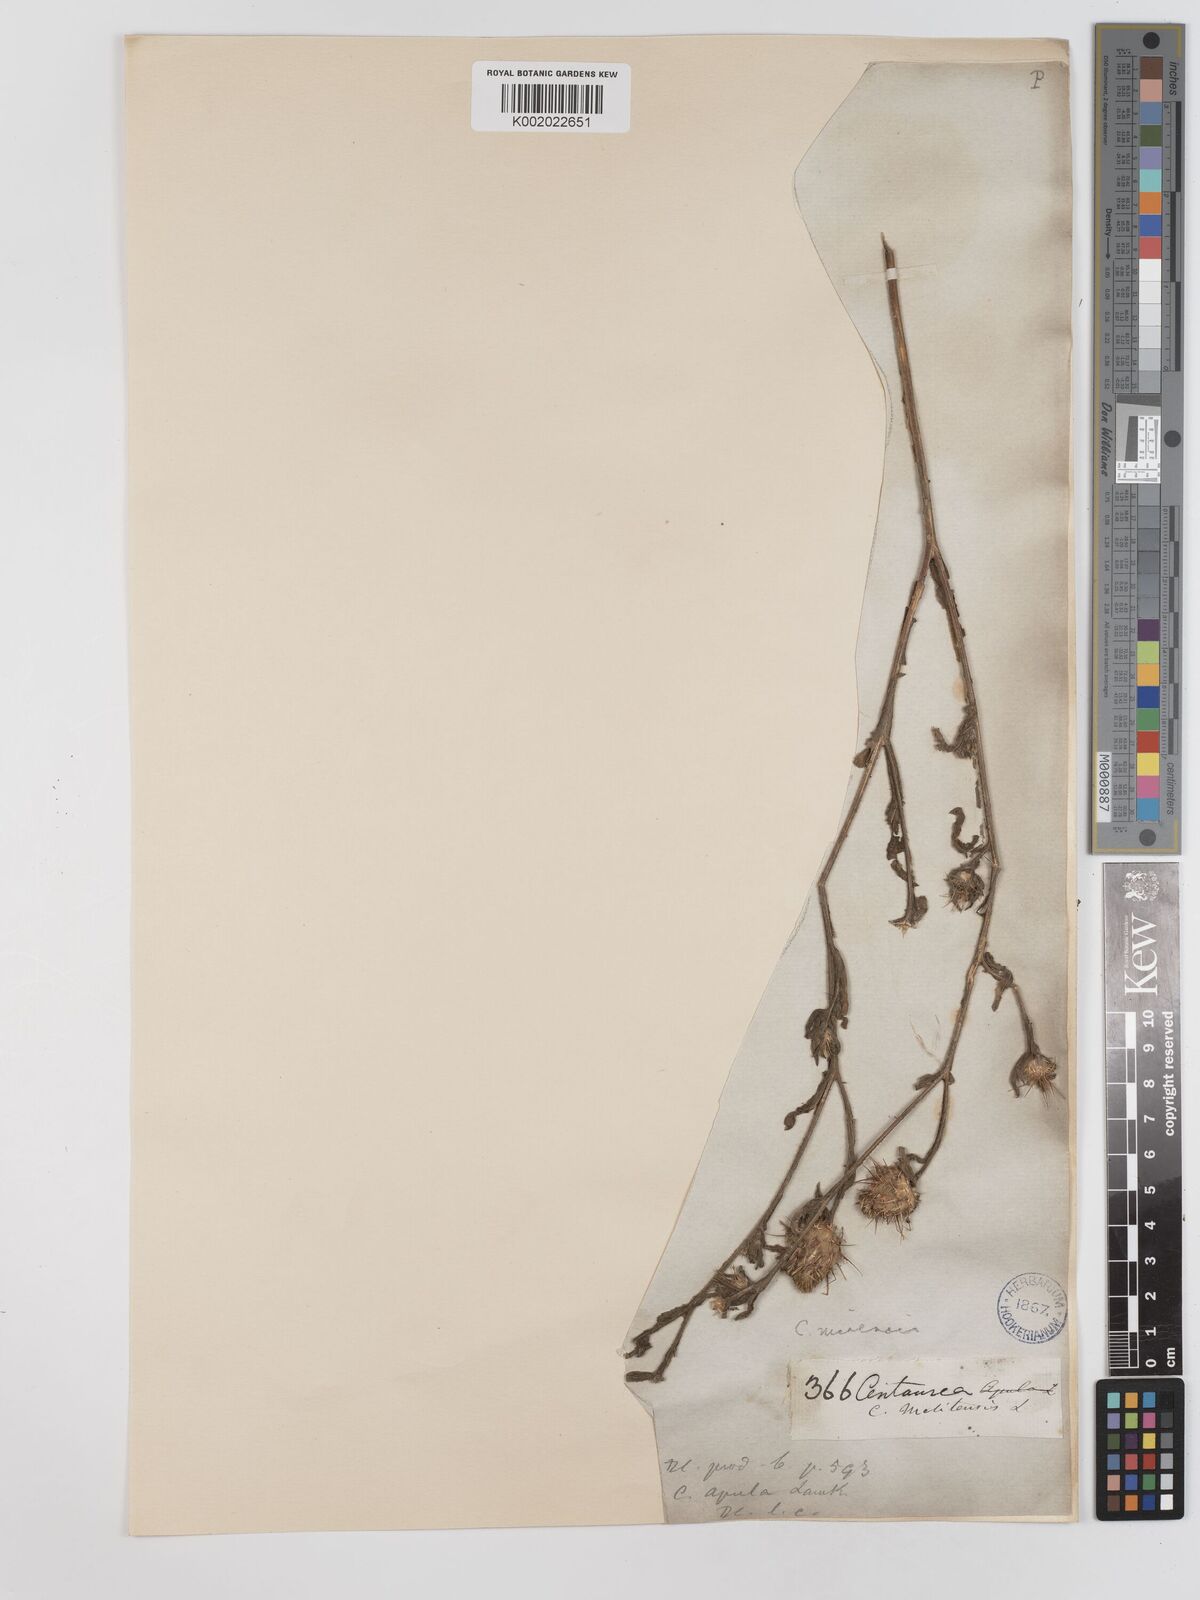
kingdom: Plantae
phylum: Tracheophyta
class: Magnoliopsida
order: Asterales
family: Asteraceae
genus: Centaurea
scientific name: Centaurea sicula
